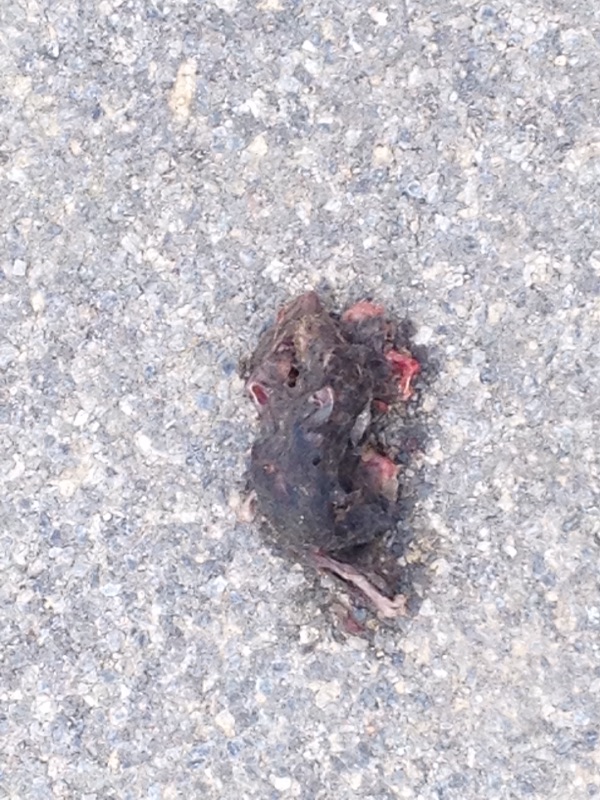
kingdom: Animalia
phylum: Chordata
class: Mammalia
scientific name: Mammalia
